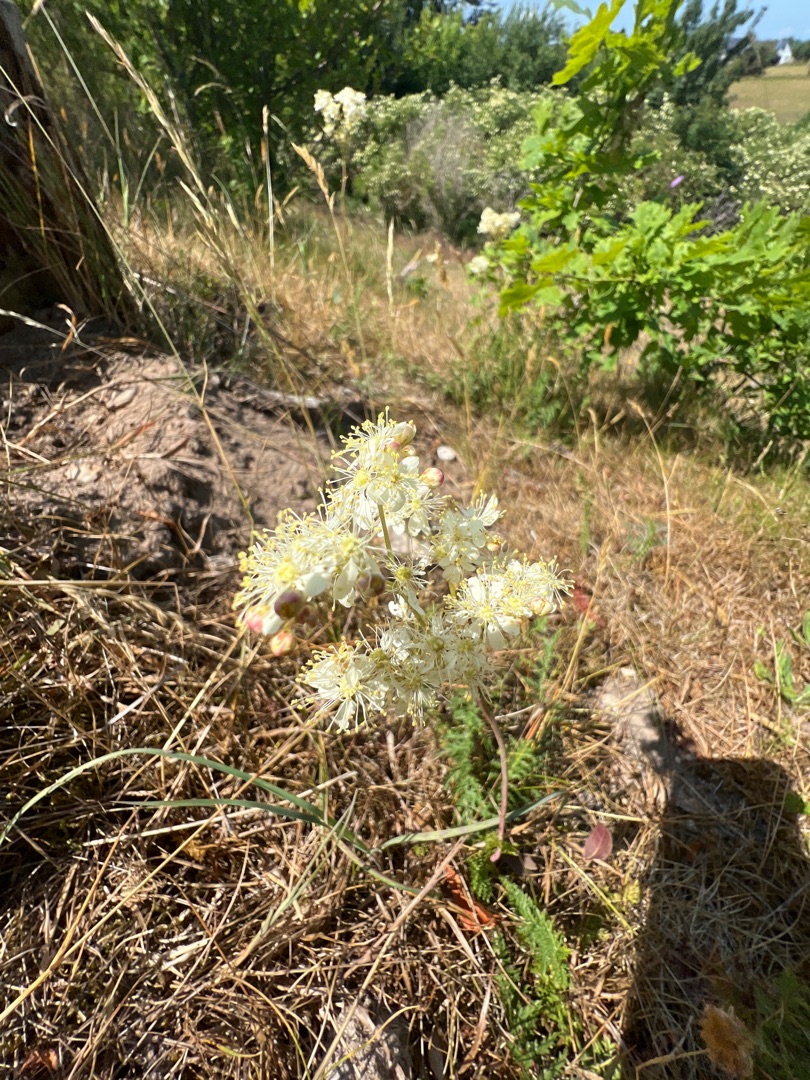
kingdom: Plantae
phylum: Tracheophyta
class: Magnoliopsida
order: Rosales
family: Rosaceae
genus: Filipendula
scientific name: Filipendula vulgaris
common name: Knoldet mjødurt
